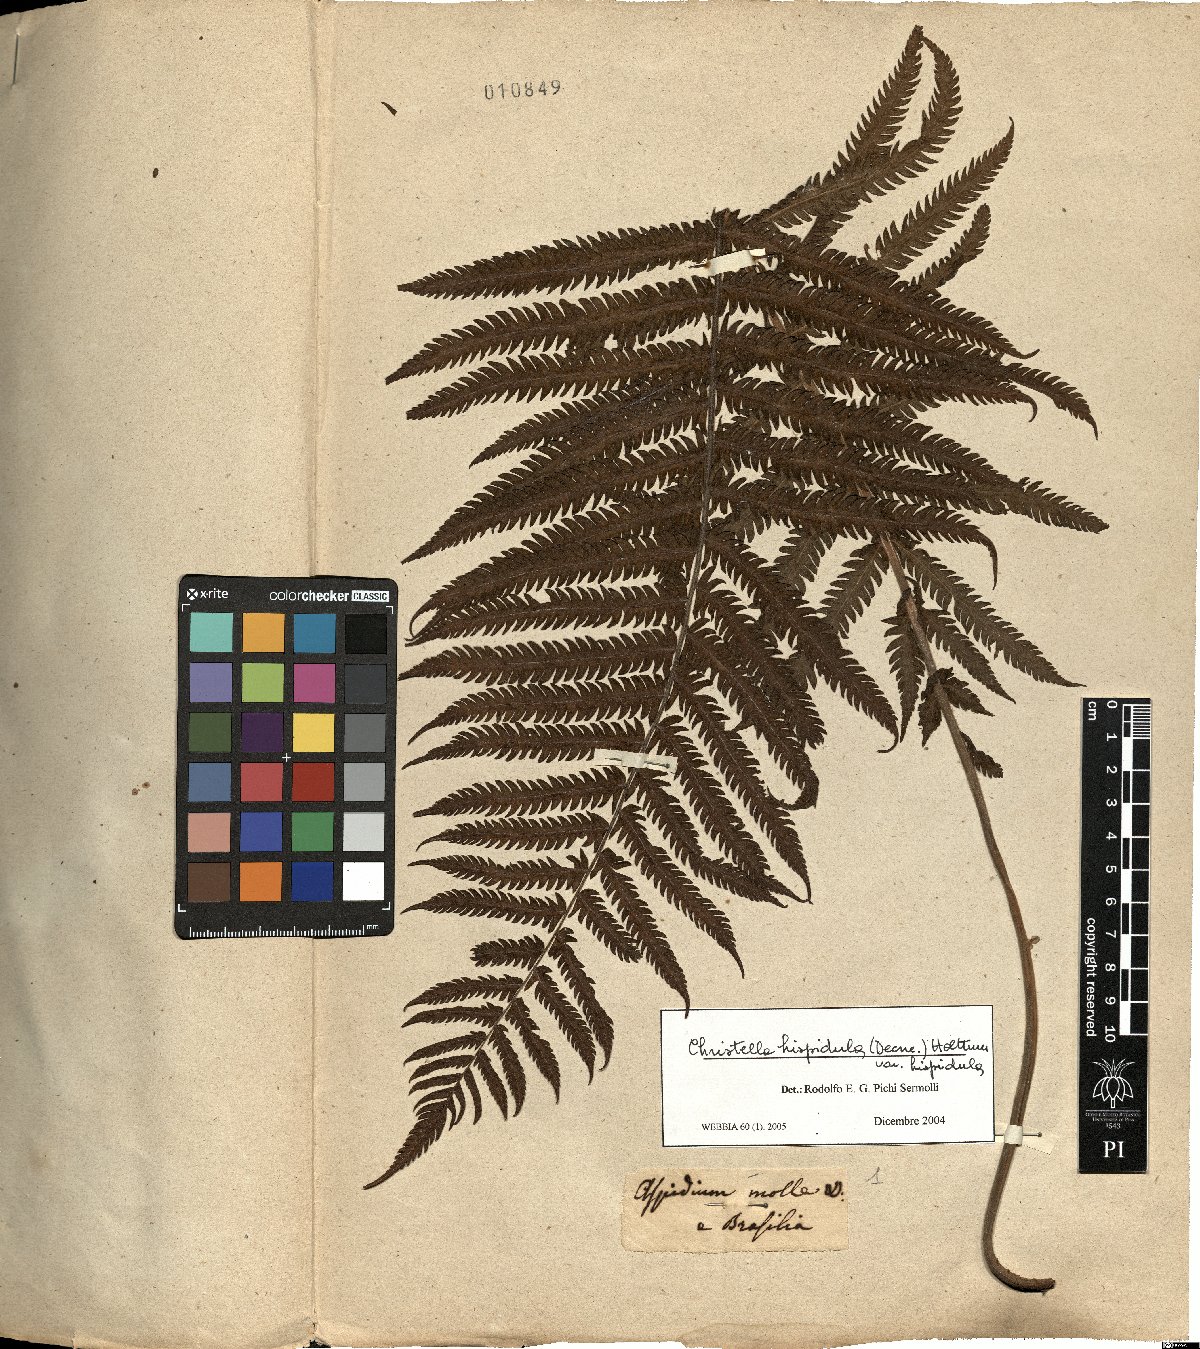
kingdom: Plantae
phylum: Tracheophyta
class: Polypodiopsida
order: Polypodiales
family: Thelypteridaceae
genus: Christella
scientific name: Christella hispidula
